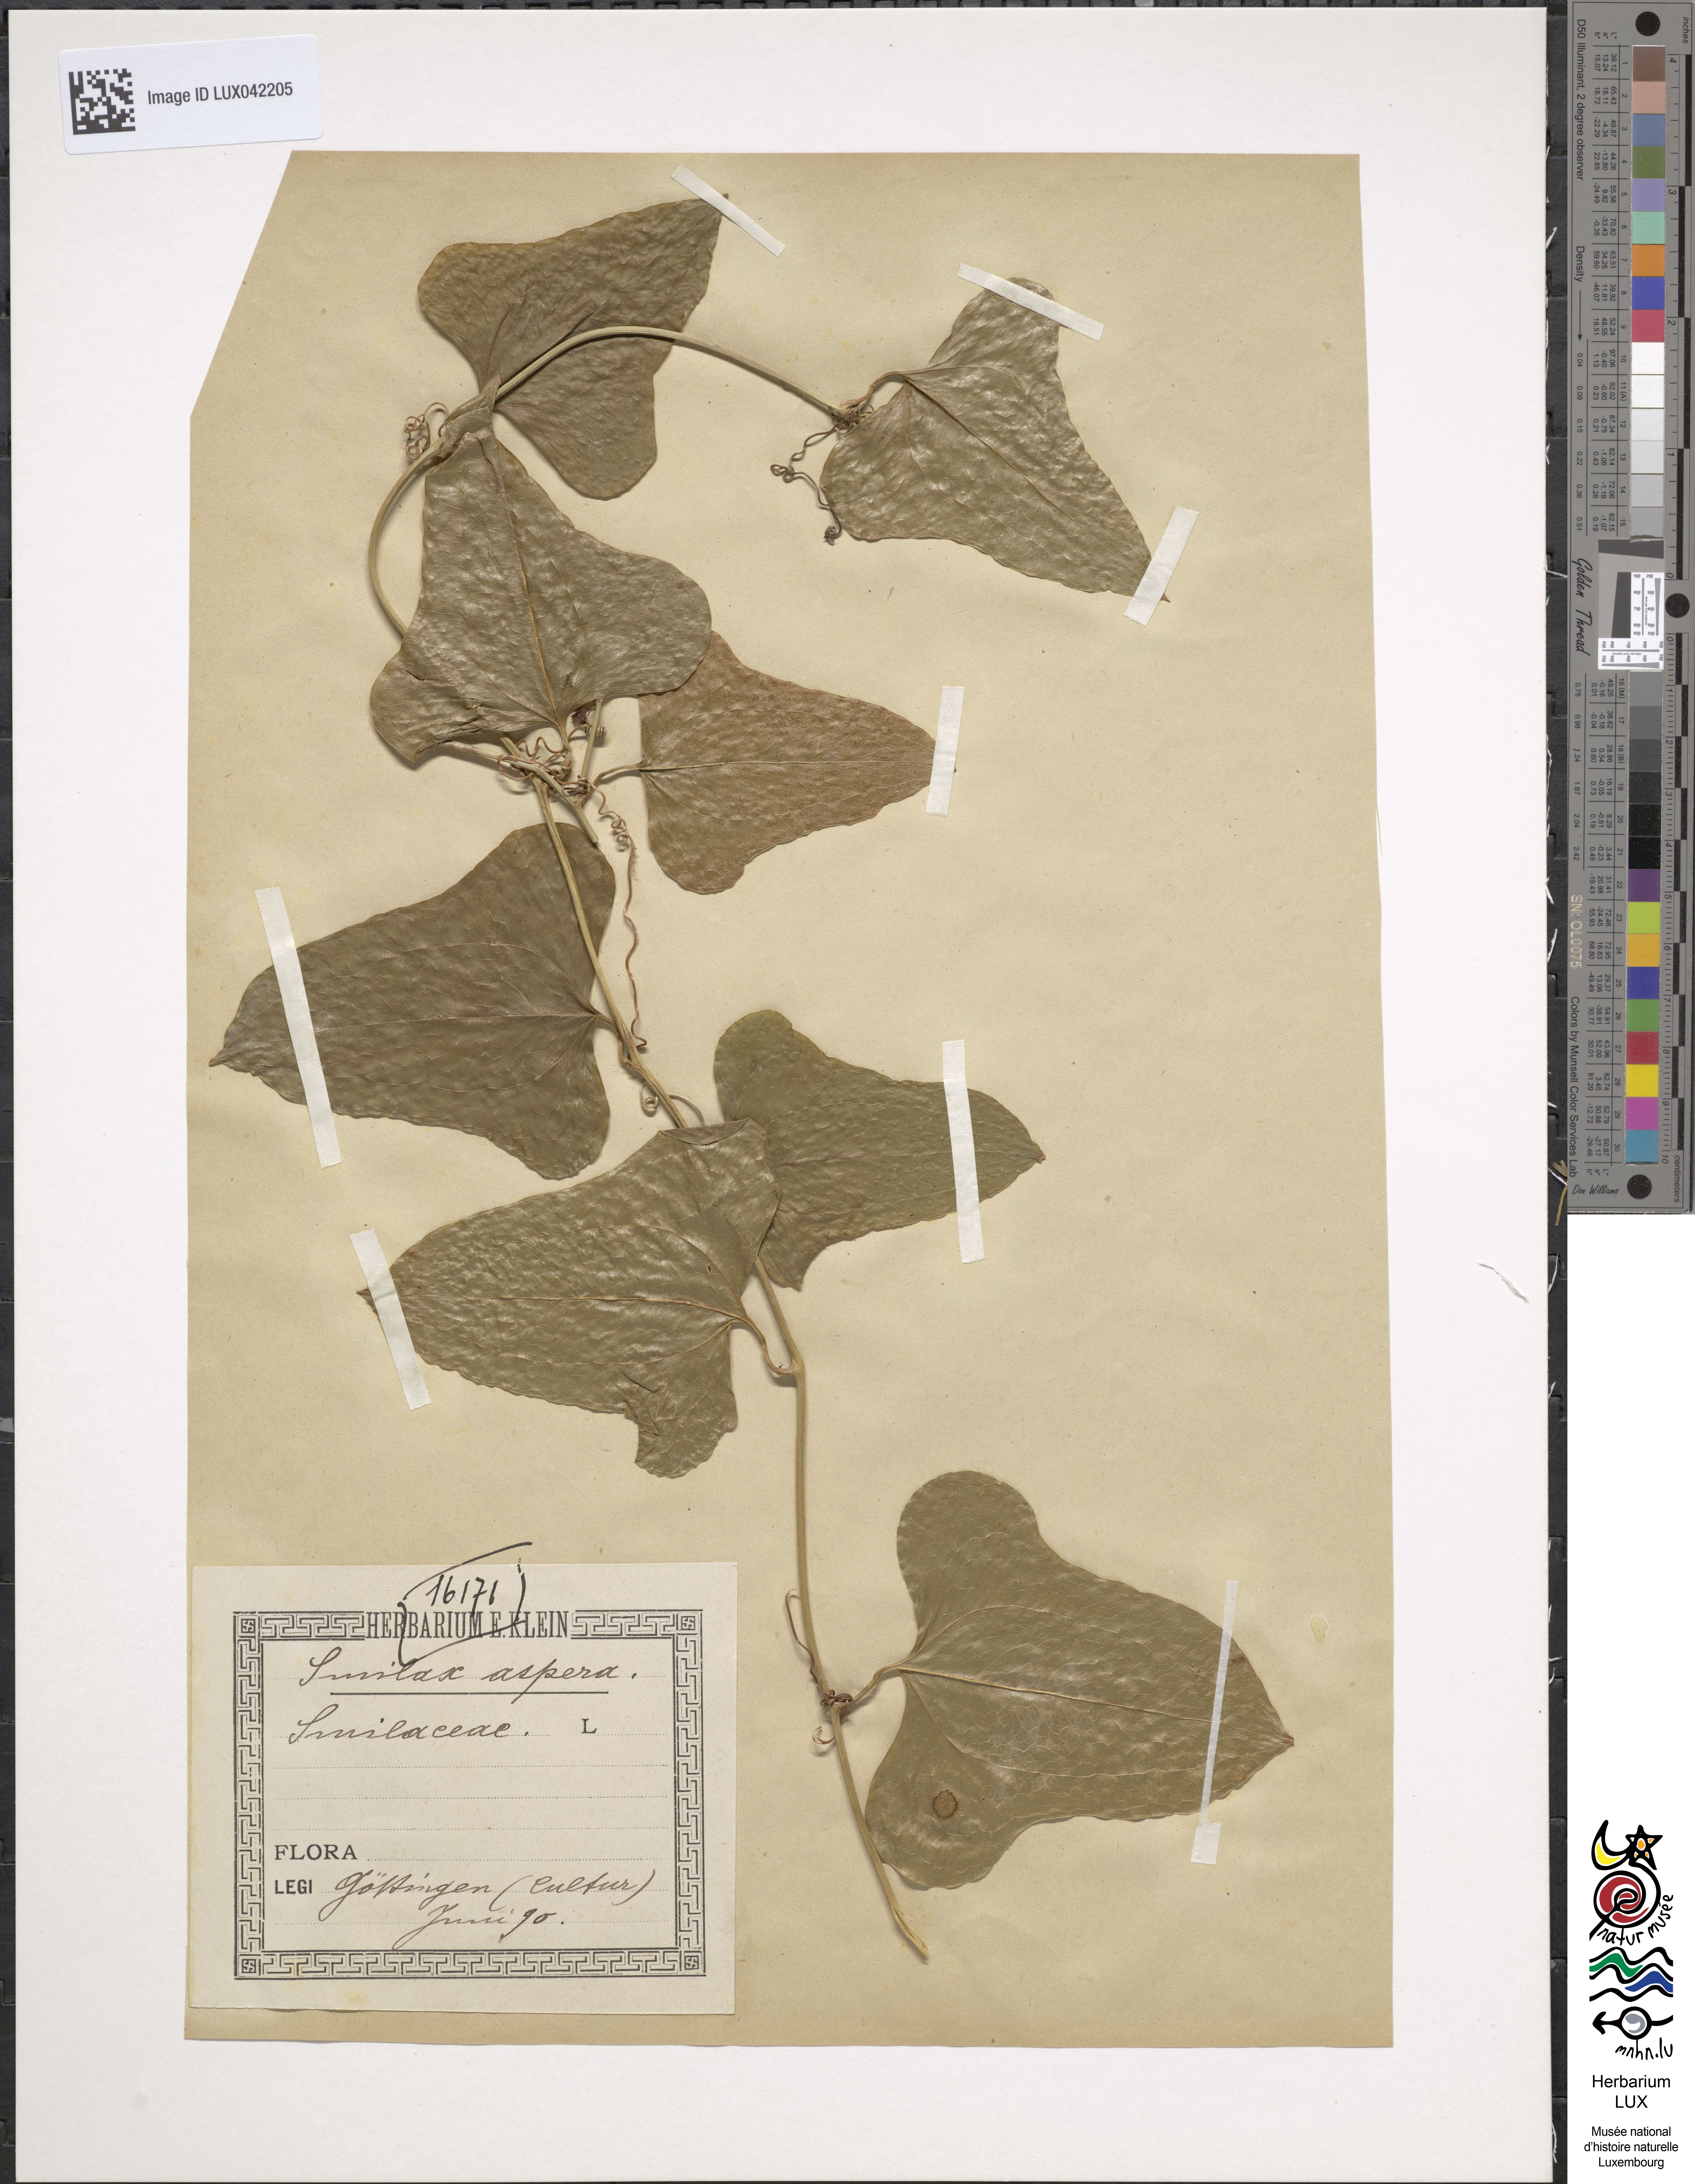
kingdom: Plantae
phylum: Tracheophyta
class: Liliopsida
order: Liliales
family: Smilacaceae
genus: Smilax
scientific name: Smilax aspera
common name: Common smilax
